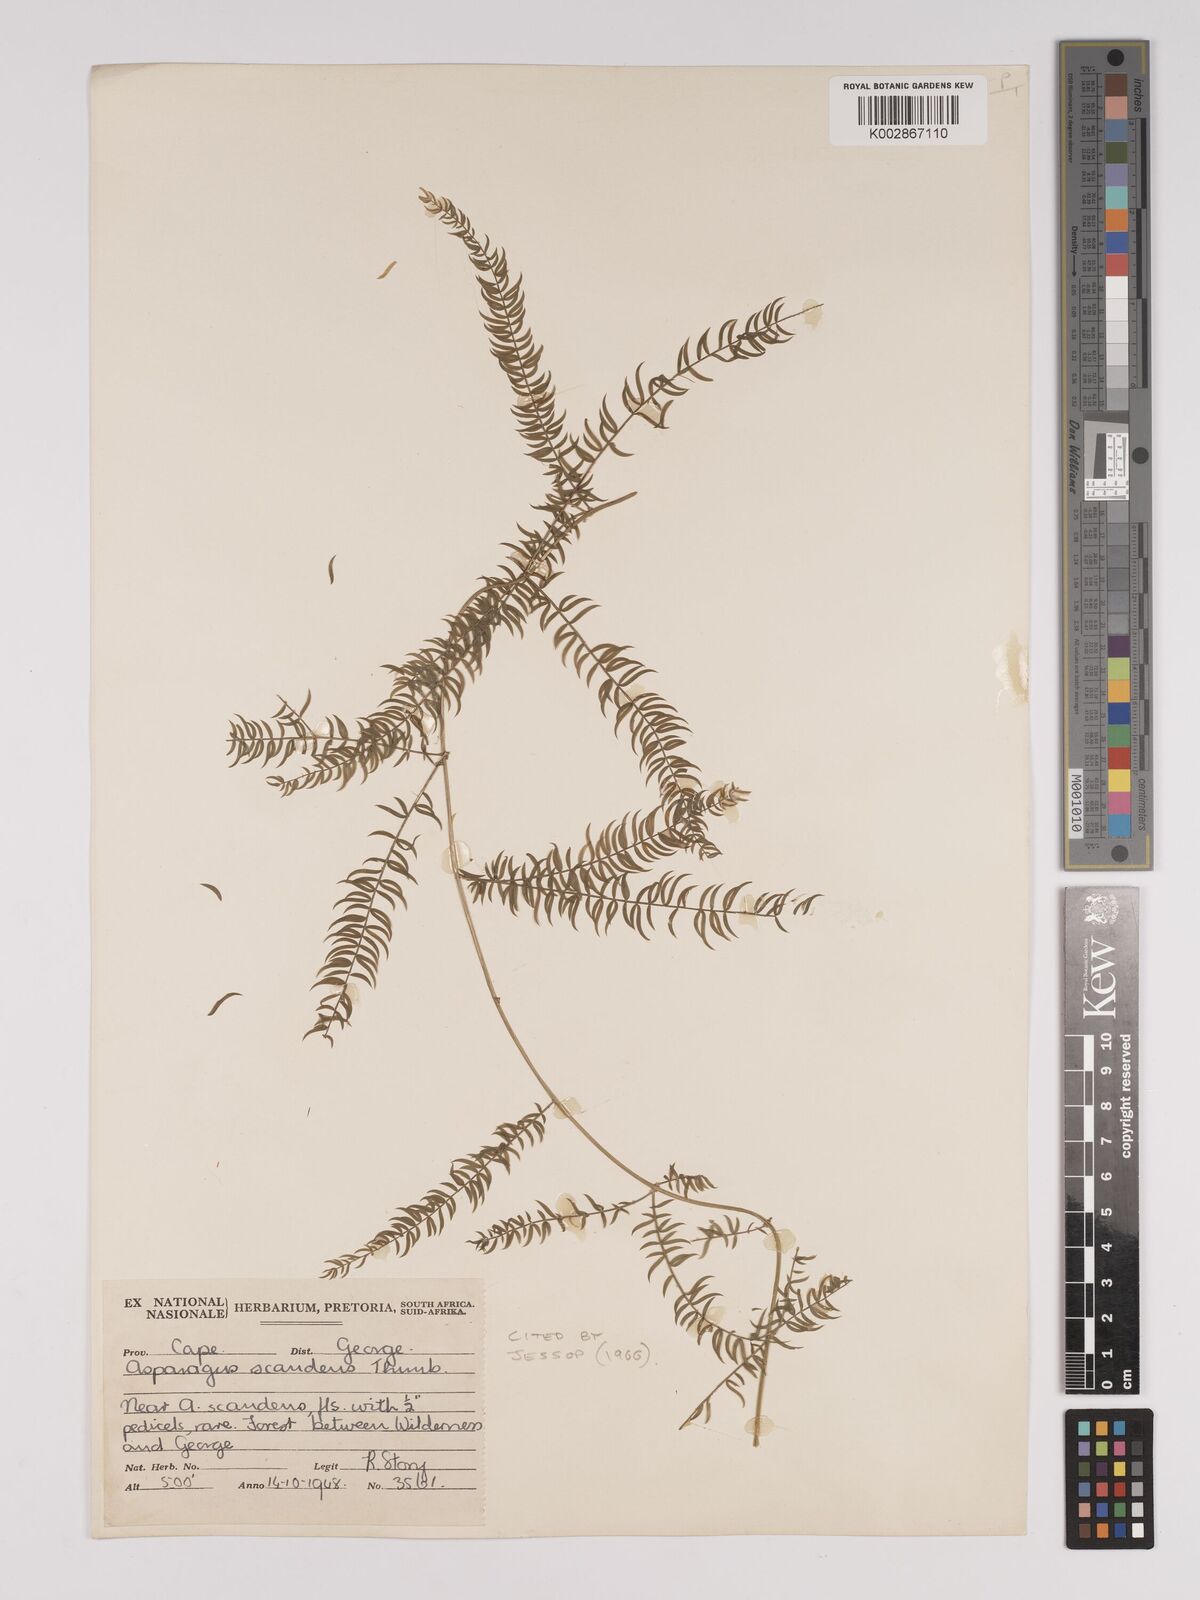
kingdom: Plantae
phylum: Tracheophyta
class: Liliopsida
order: Asparagales
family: Asparagaceae
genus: Asparagus
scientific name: Asparagus scandens
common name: Asparagus-fern
